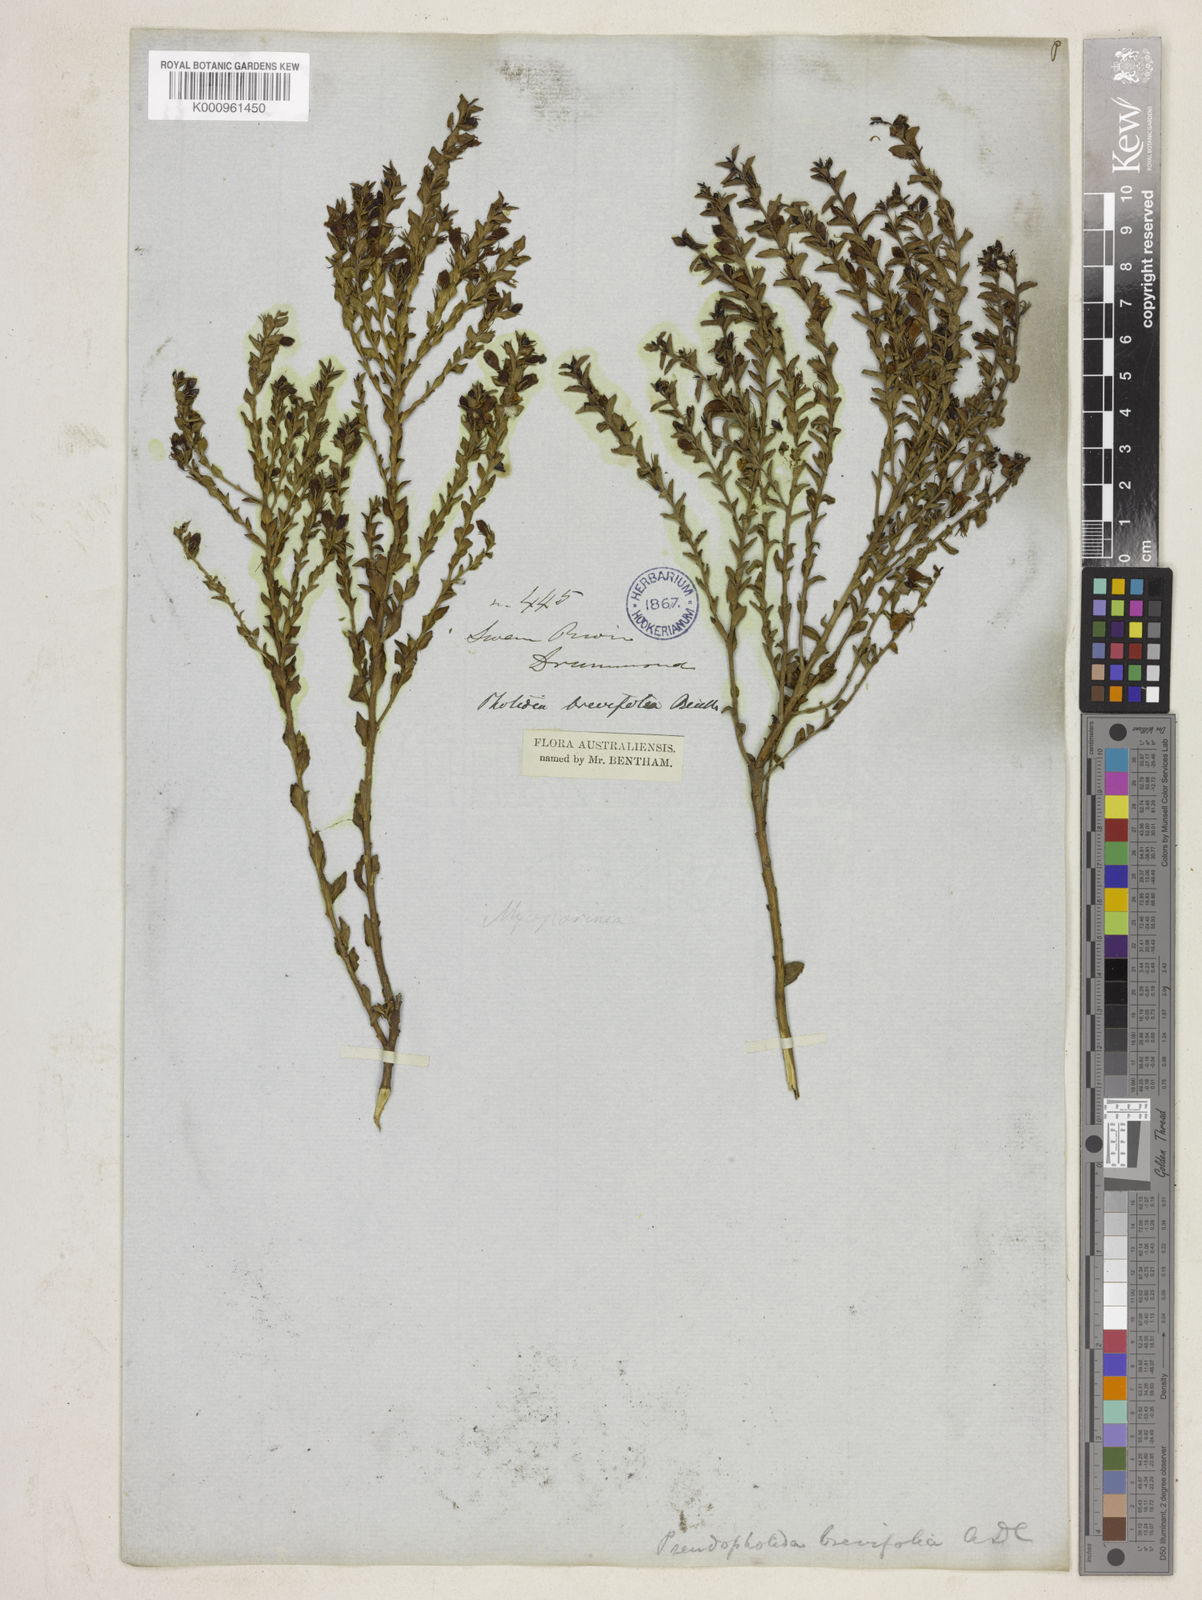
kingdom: Plantae
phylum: Tracheophyta
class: Magnoliopsida
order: Lamiales
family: Scrophulariaceae
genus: Eremophila
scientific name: Eremophila brevifolia
